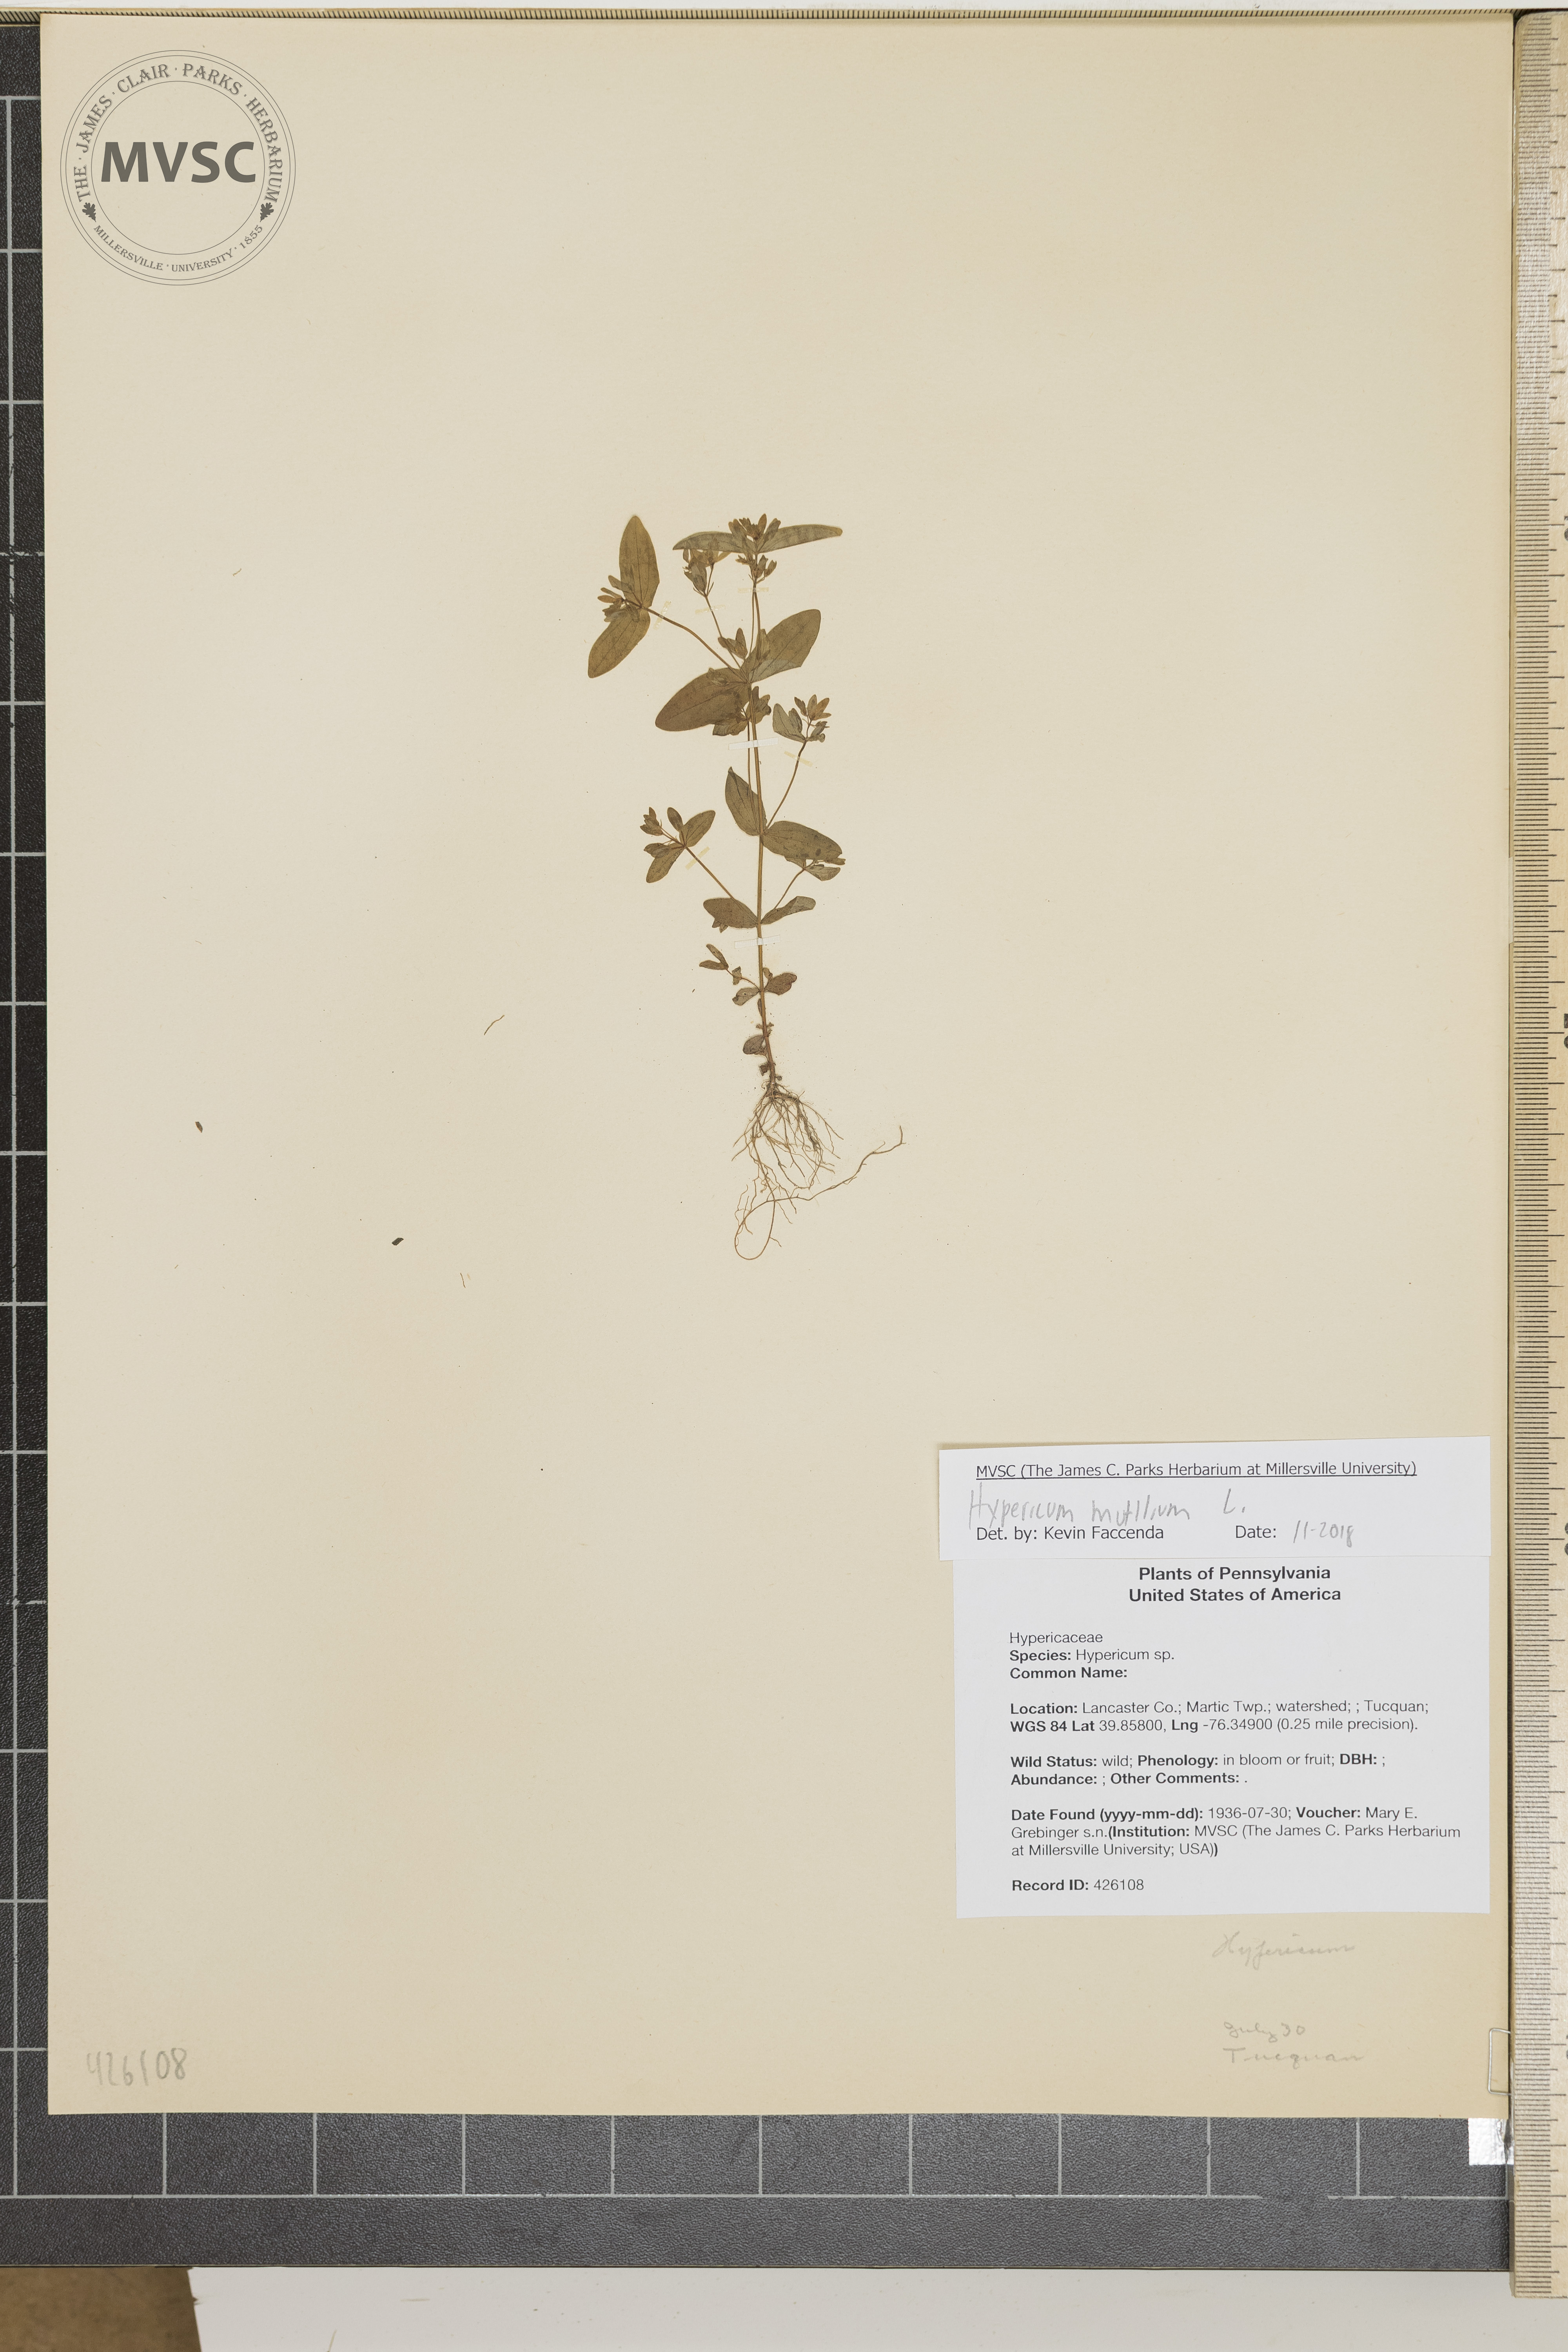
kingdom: Plantae
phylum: Tracheophyta
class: Magnoliopsida
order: Malpighiales
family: Hypericaceae
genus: Hypericum
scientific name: Hypericum mutilum
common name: Dwarf st. john's-wort
